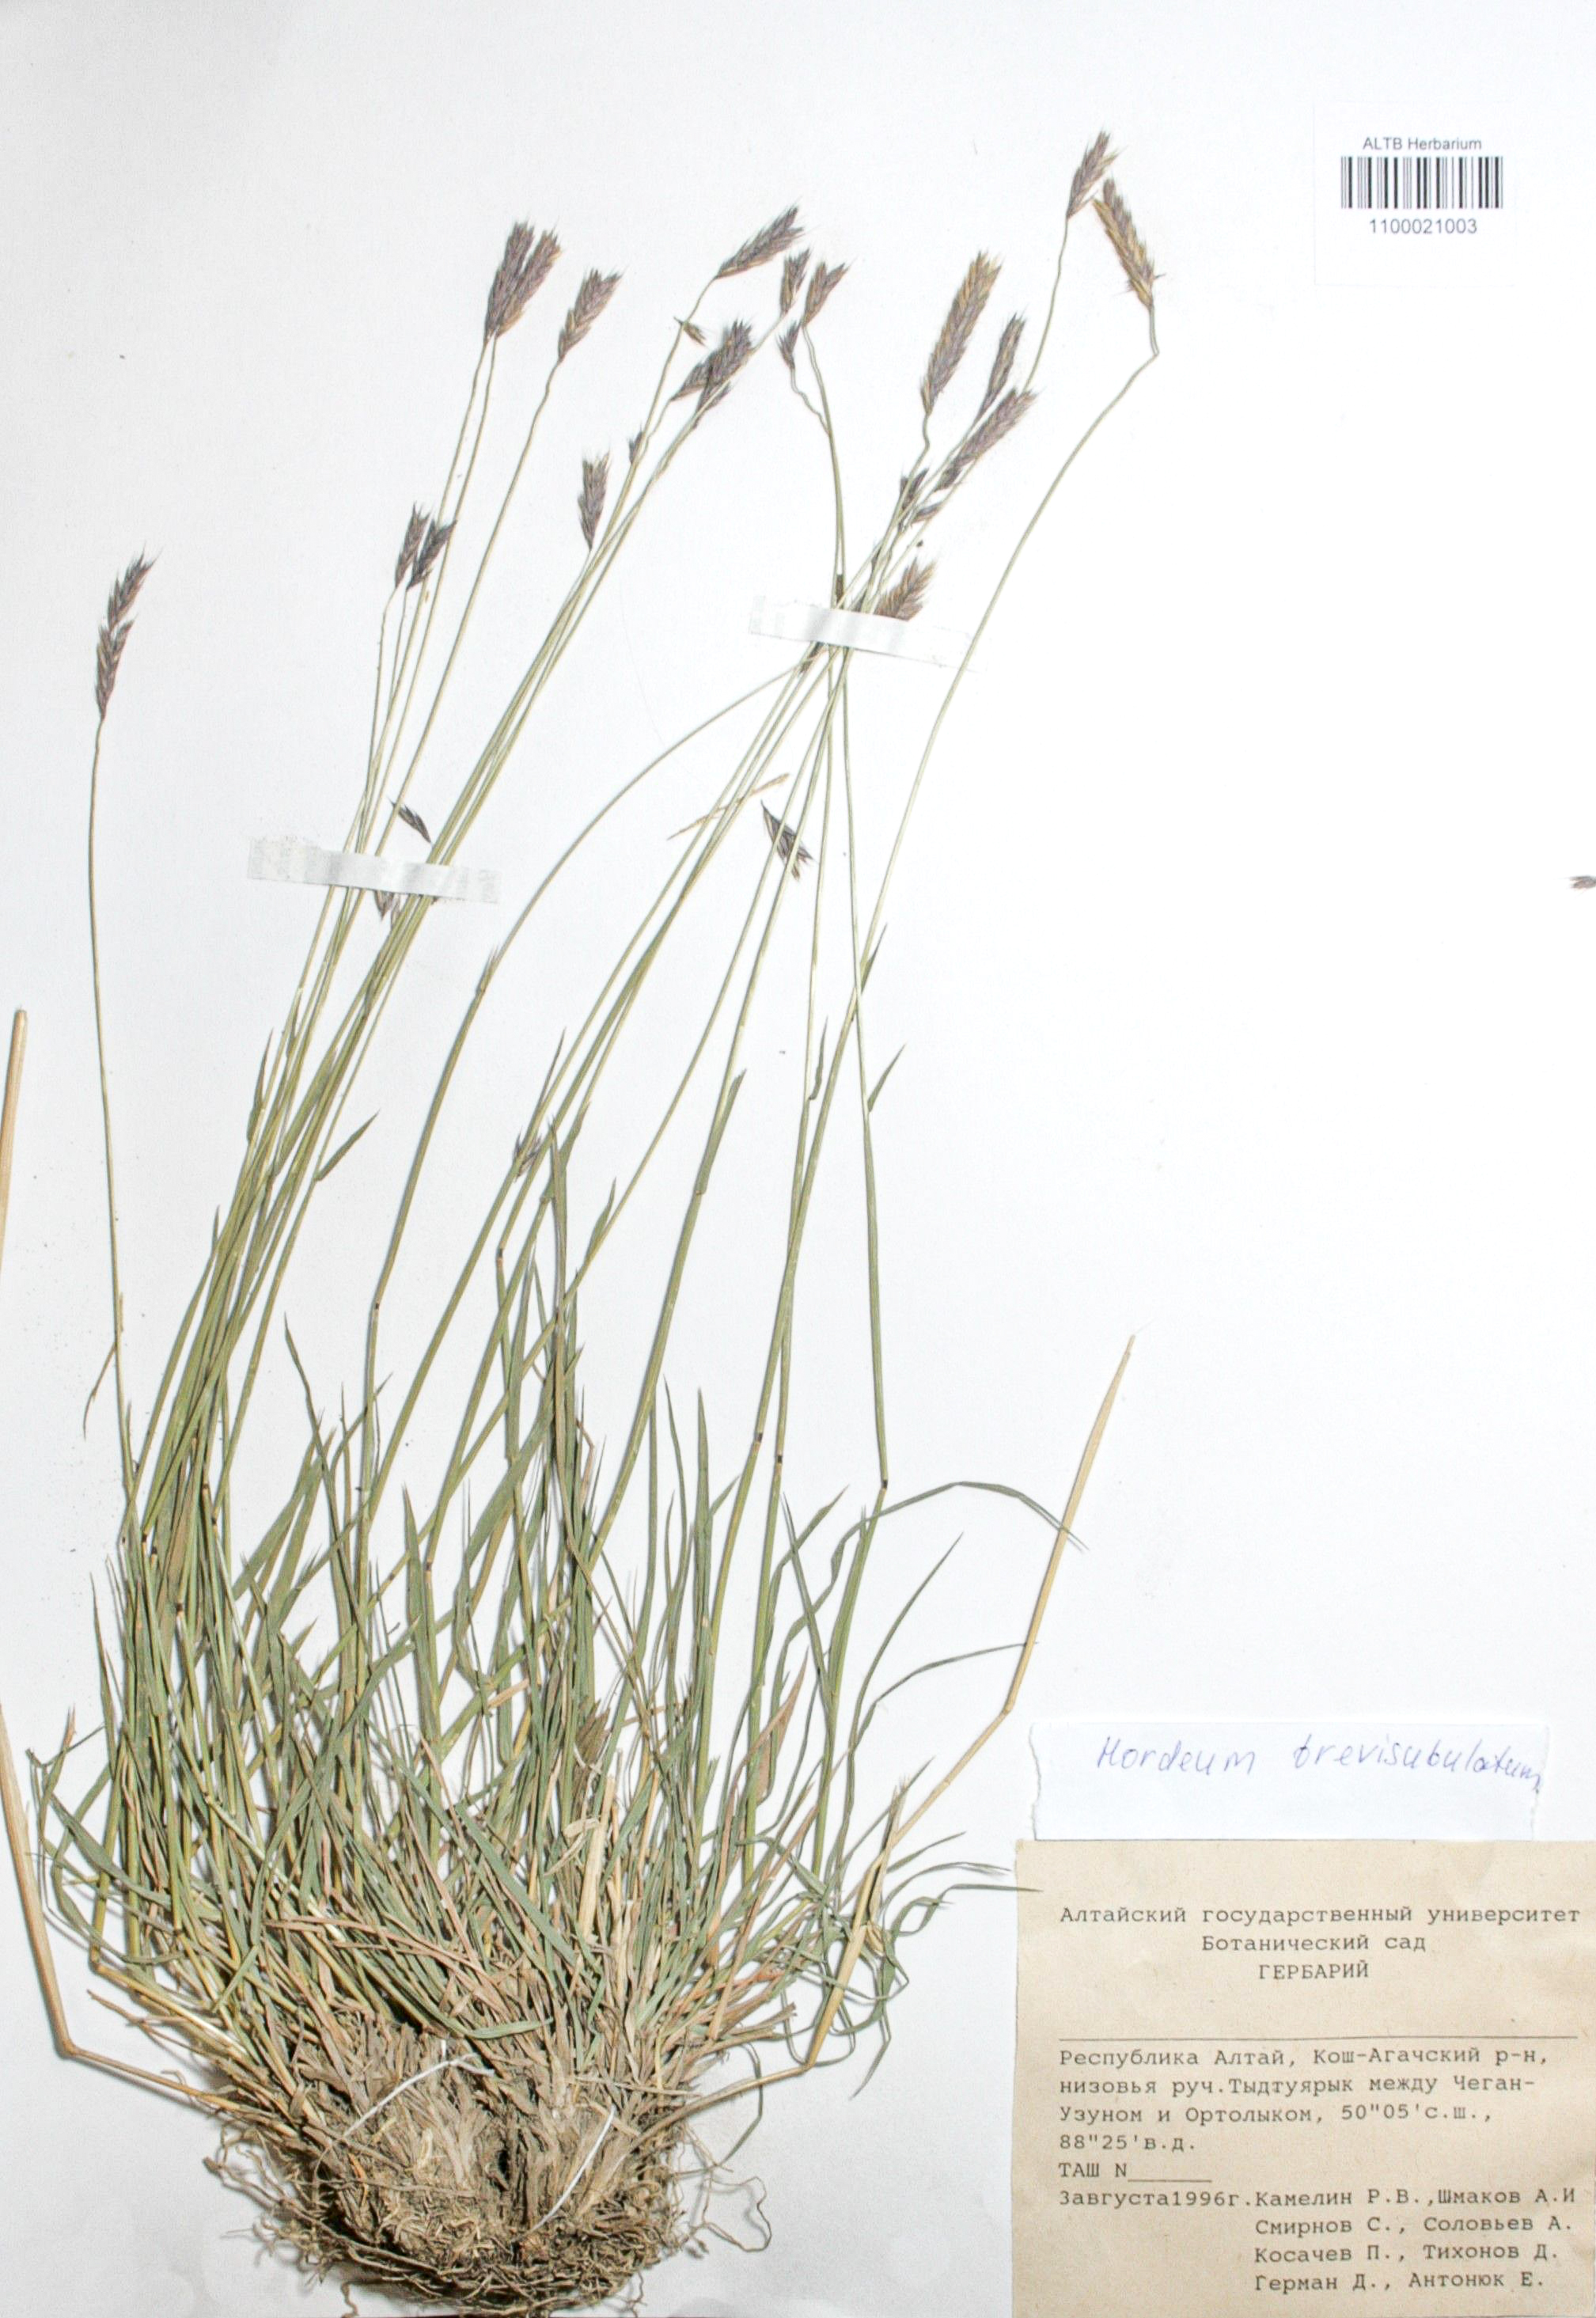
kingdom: Plantae
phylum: Tracheophyta
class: Liliopsida
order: Poales
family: Poaceae
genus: Hordeum
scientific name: Hordeum brevisubulatum
